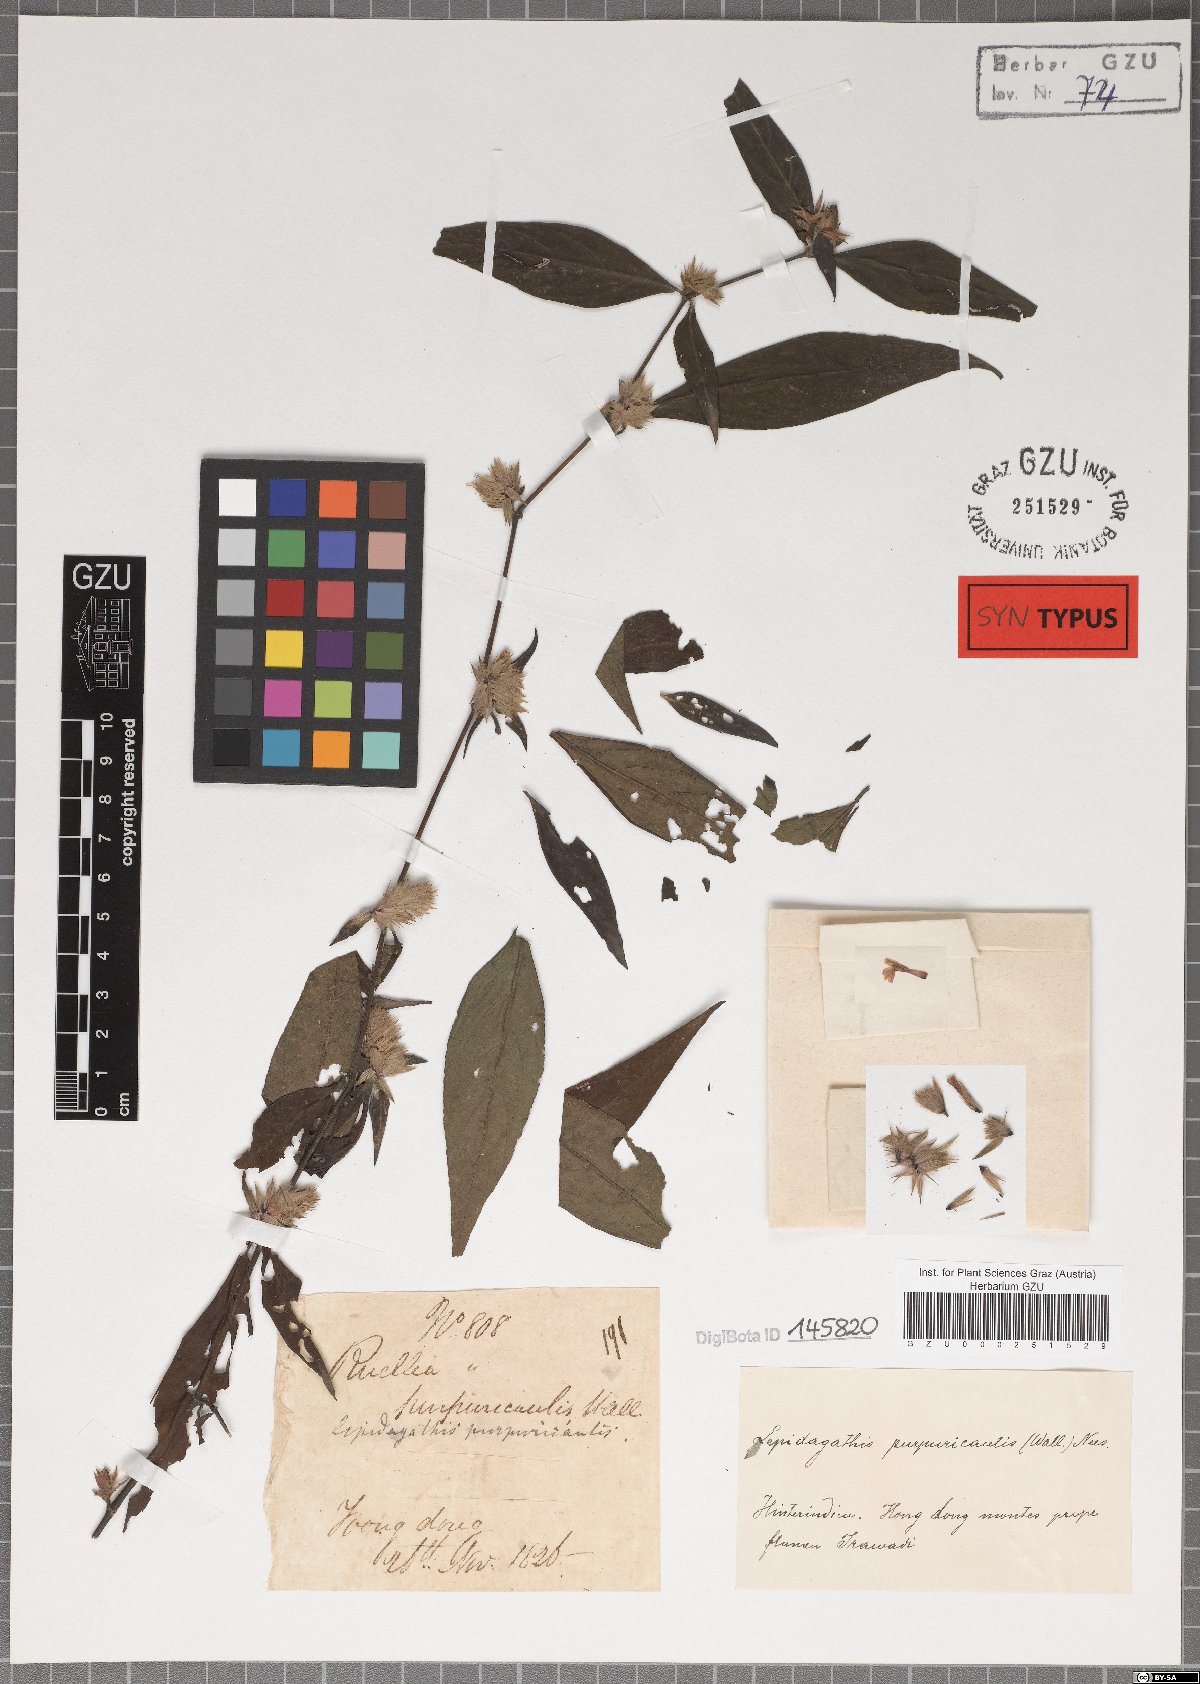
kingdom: Plantae
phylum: Tracheophyta
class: Magnoliopsida
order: Lamiales
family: Acanthaceae
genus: Lepidagathis
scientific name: Lepidagathis purpuricaulis
